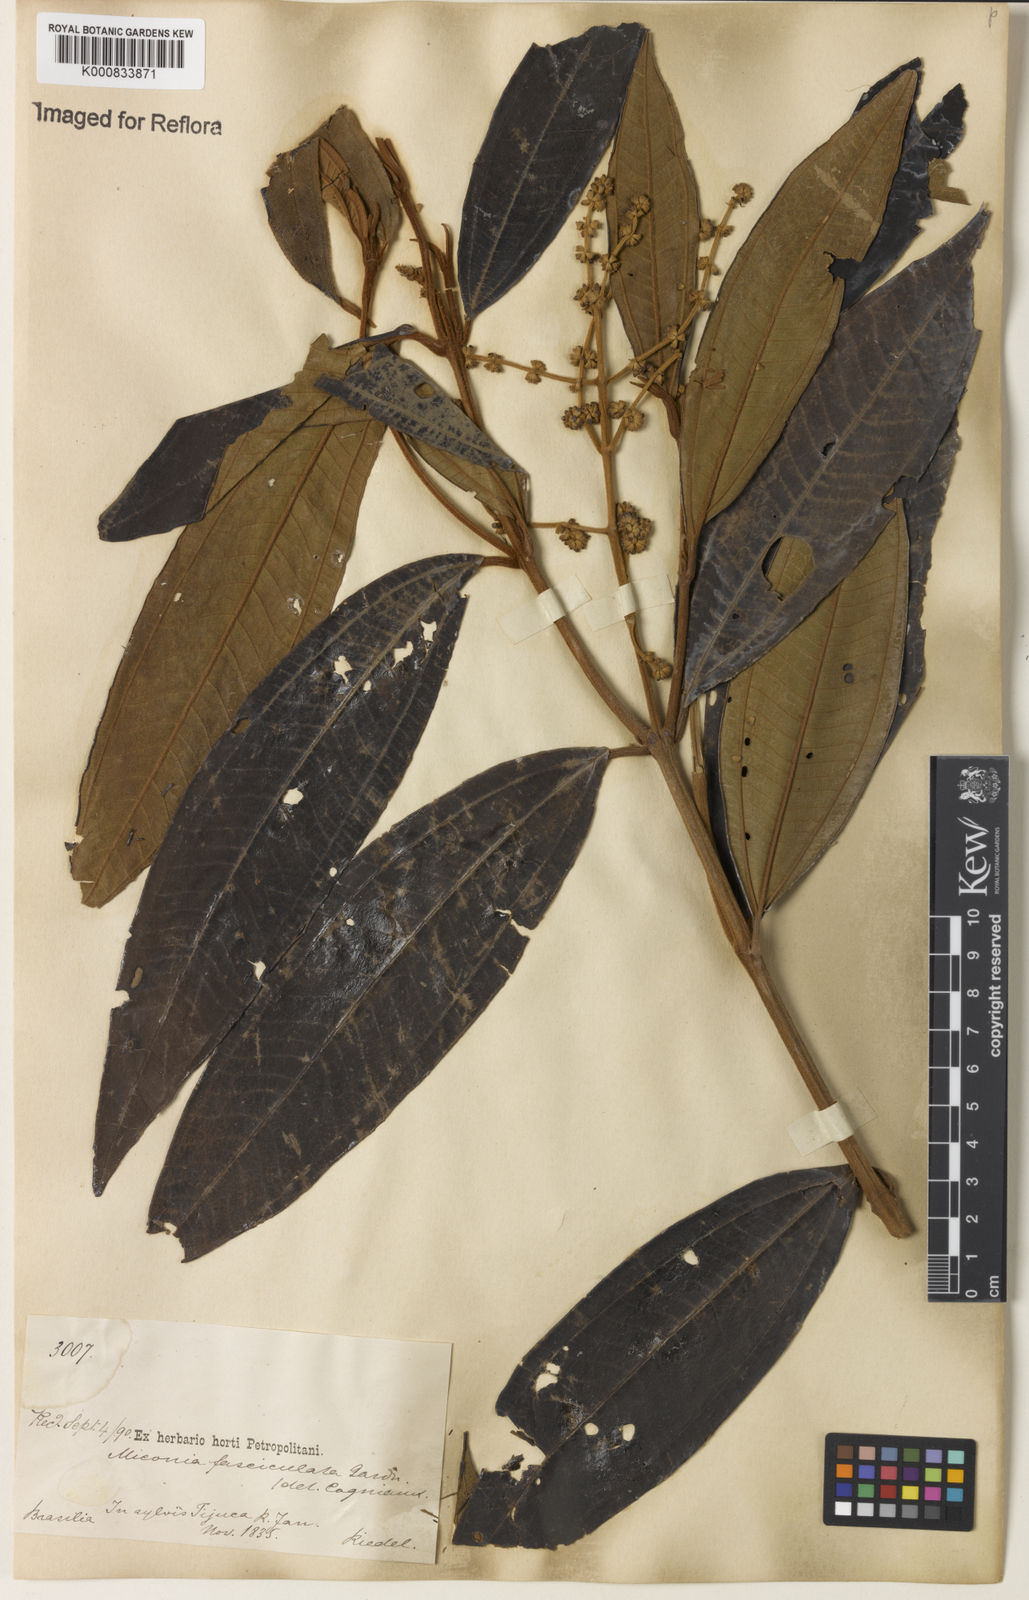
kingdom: Plantae
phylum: Tracheophyta
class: Magnoliopsida
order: Myrtales
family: Melastomataceae
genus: Miconia
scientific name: Miconia fasciculata
